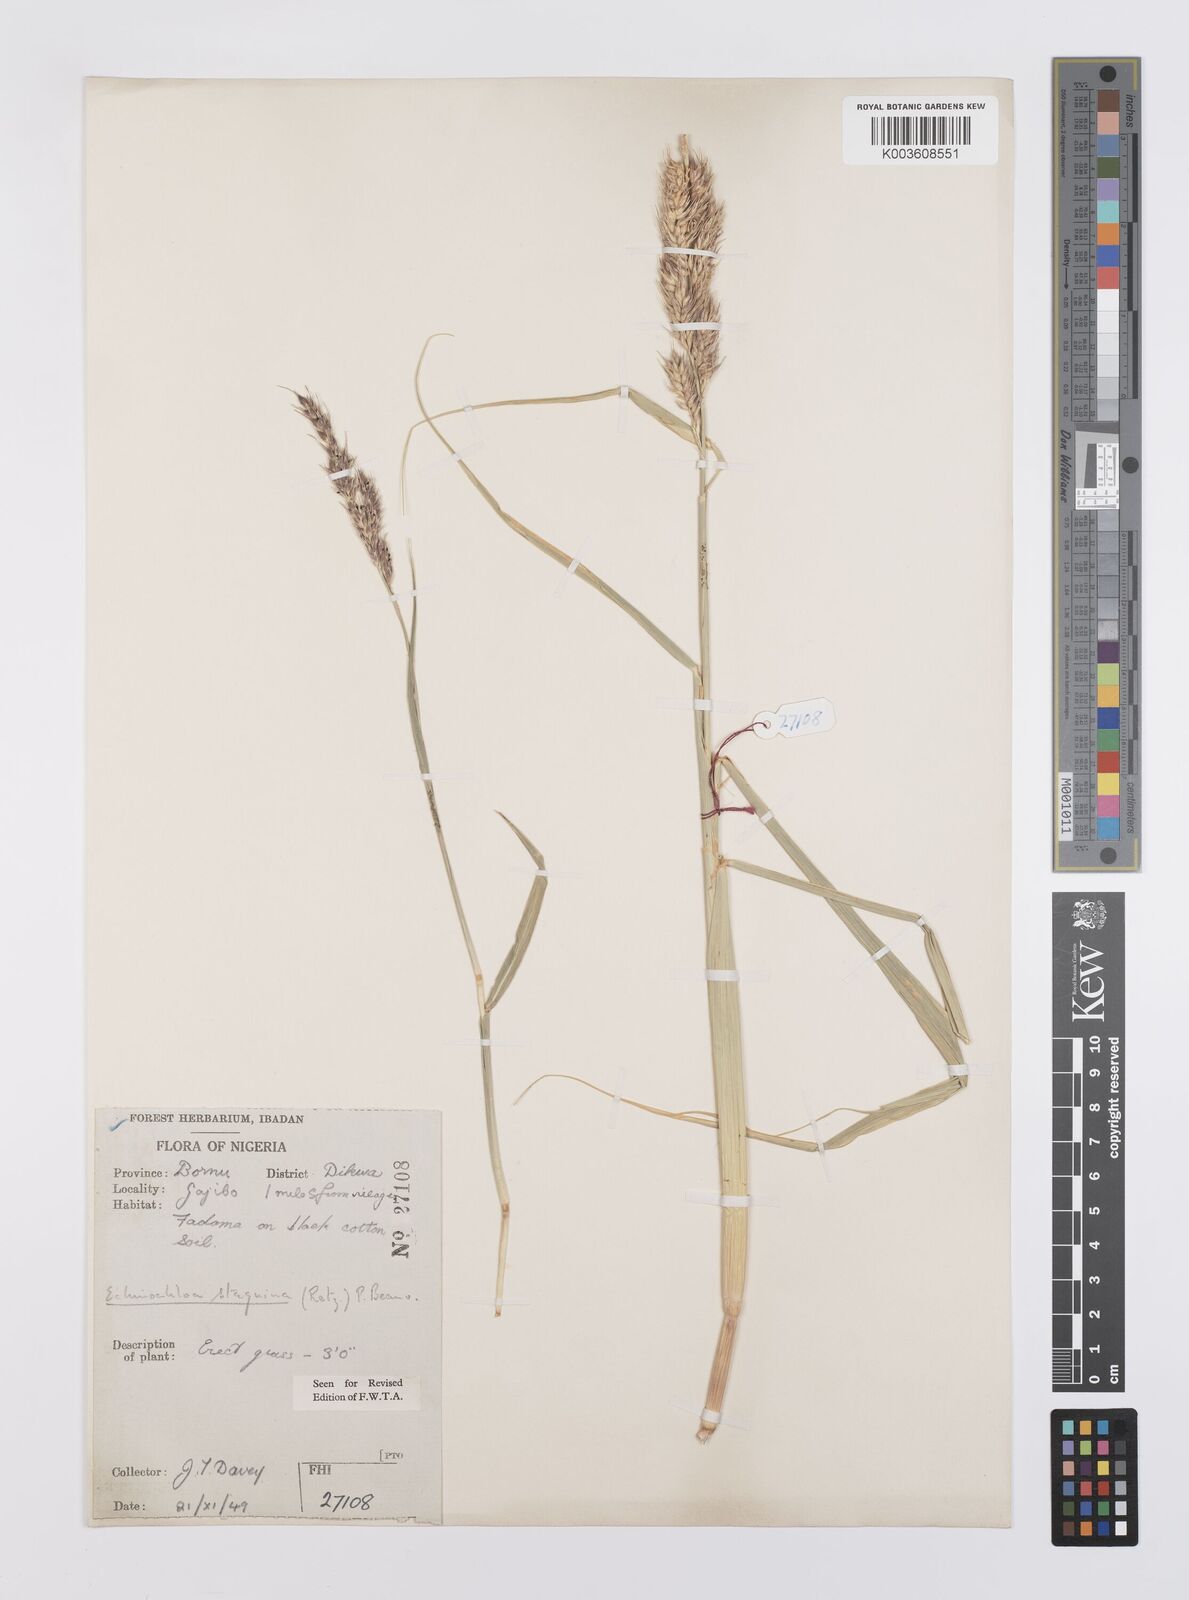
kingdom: Plantae
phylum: Tracheophyta
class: Liliopsida
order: Poales
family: Poaceae
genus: Echinochloa
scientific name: Echinochloa stagnina
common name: Burgu grass
